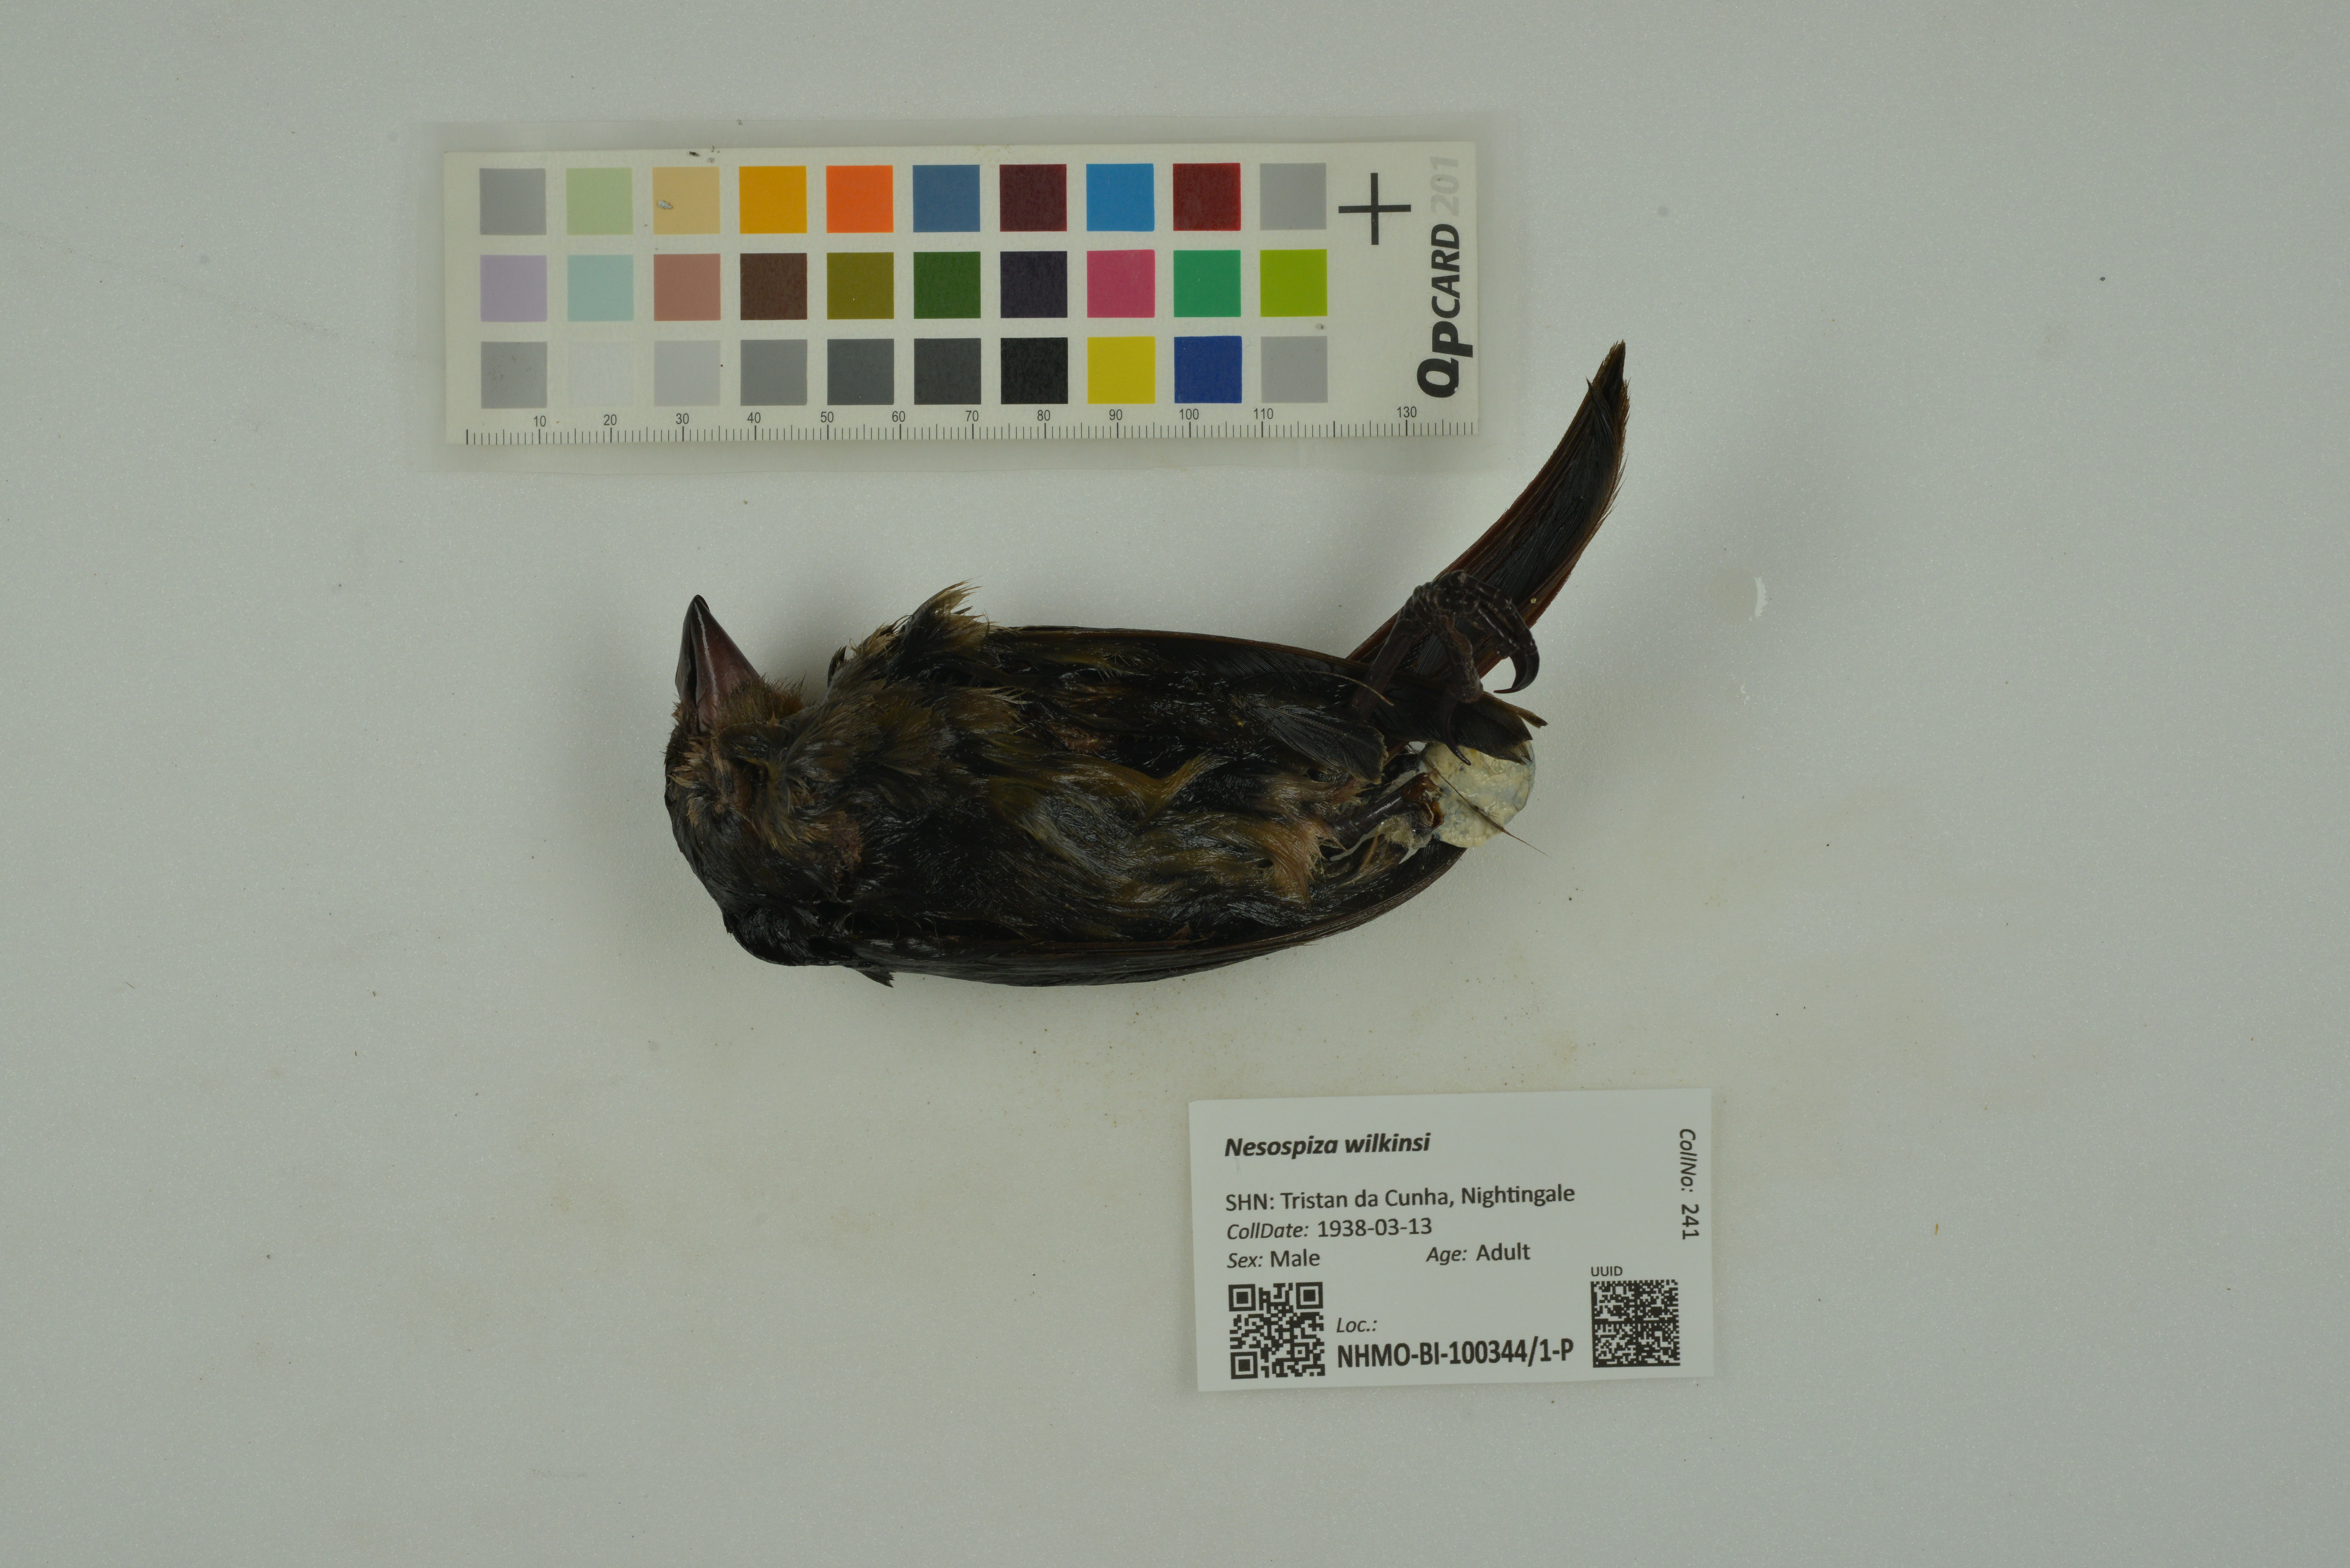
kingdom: Animalia
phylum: Chordata
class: Aves
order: Passeriformes
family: Thraupidae
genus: Nesospiza
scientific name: Nesospiza wilkinsi
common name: Wilkins's finch
